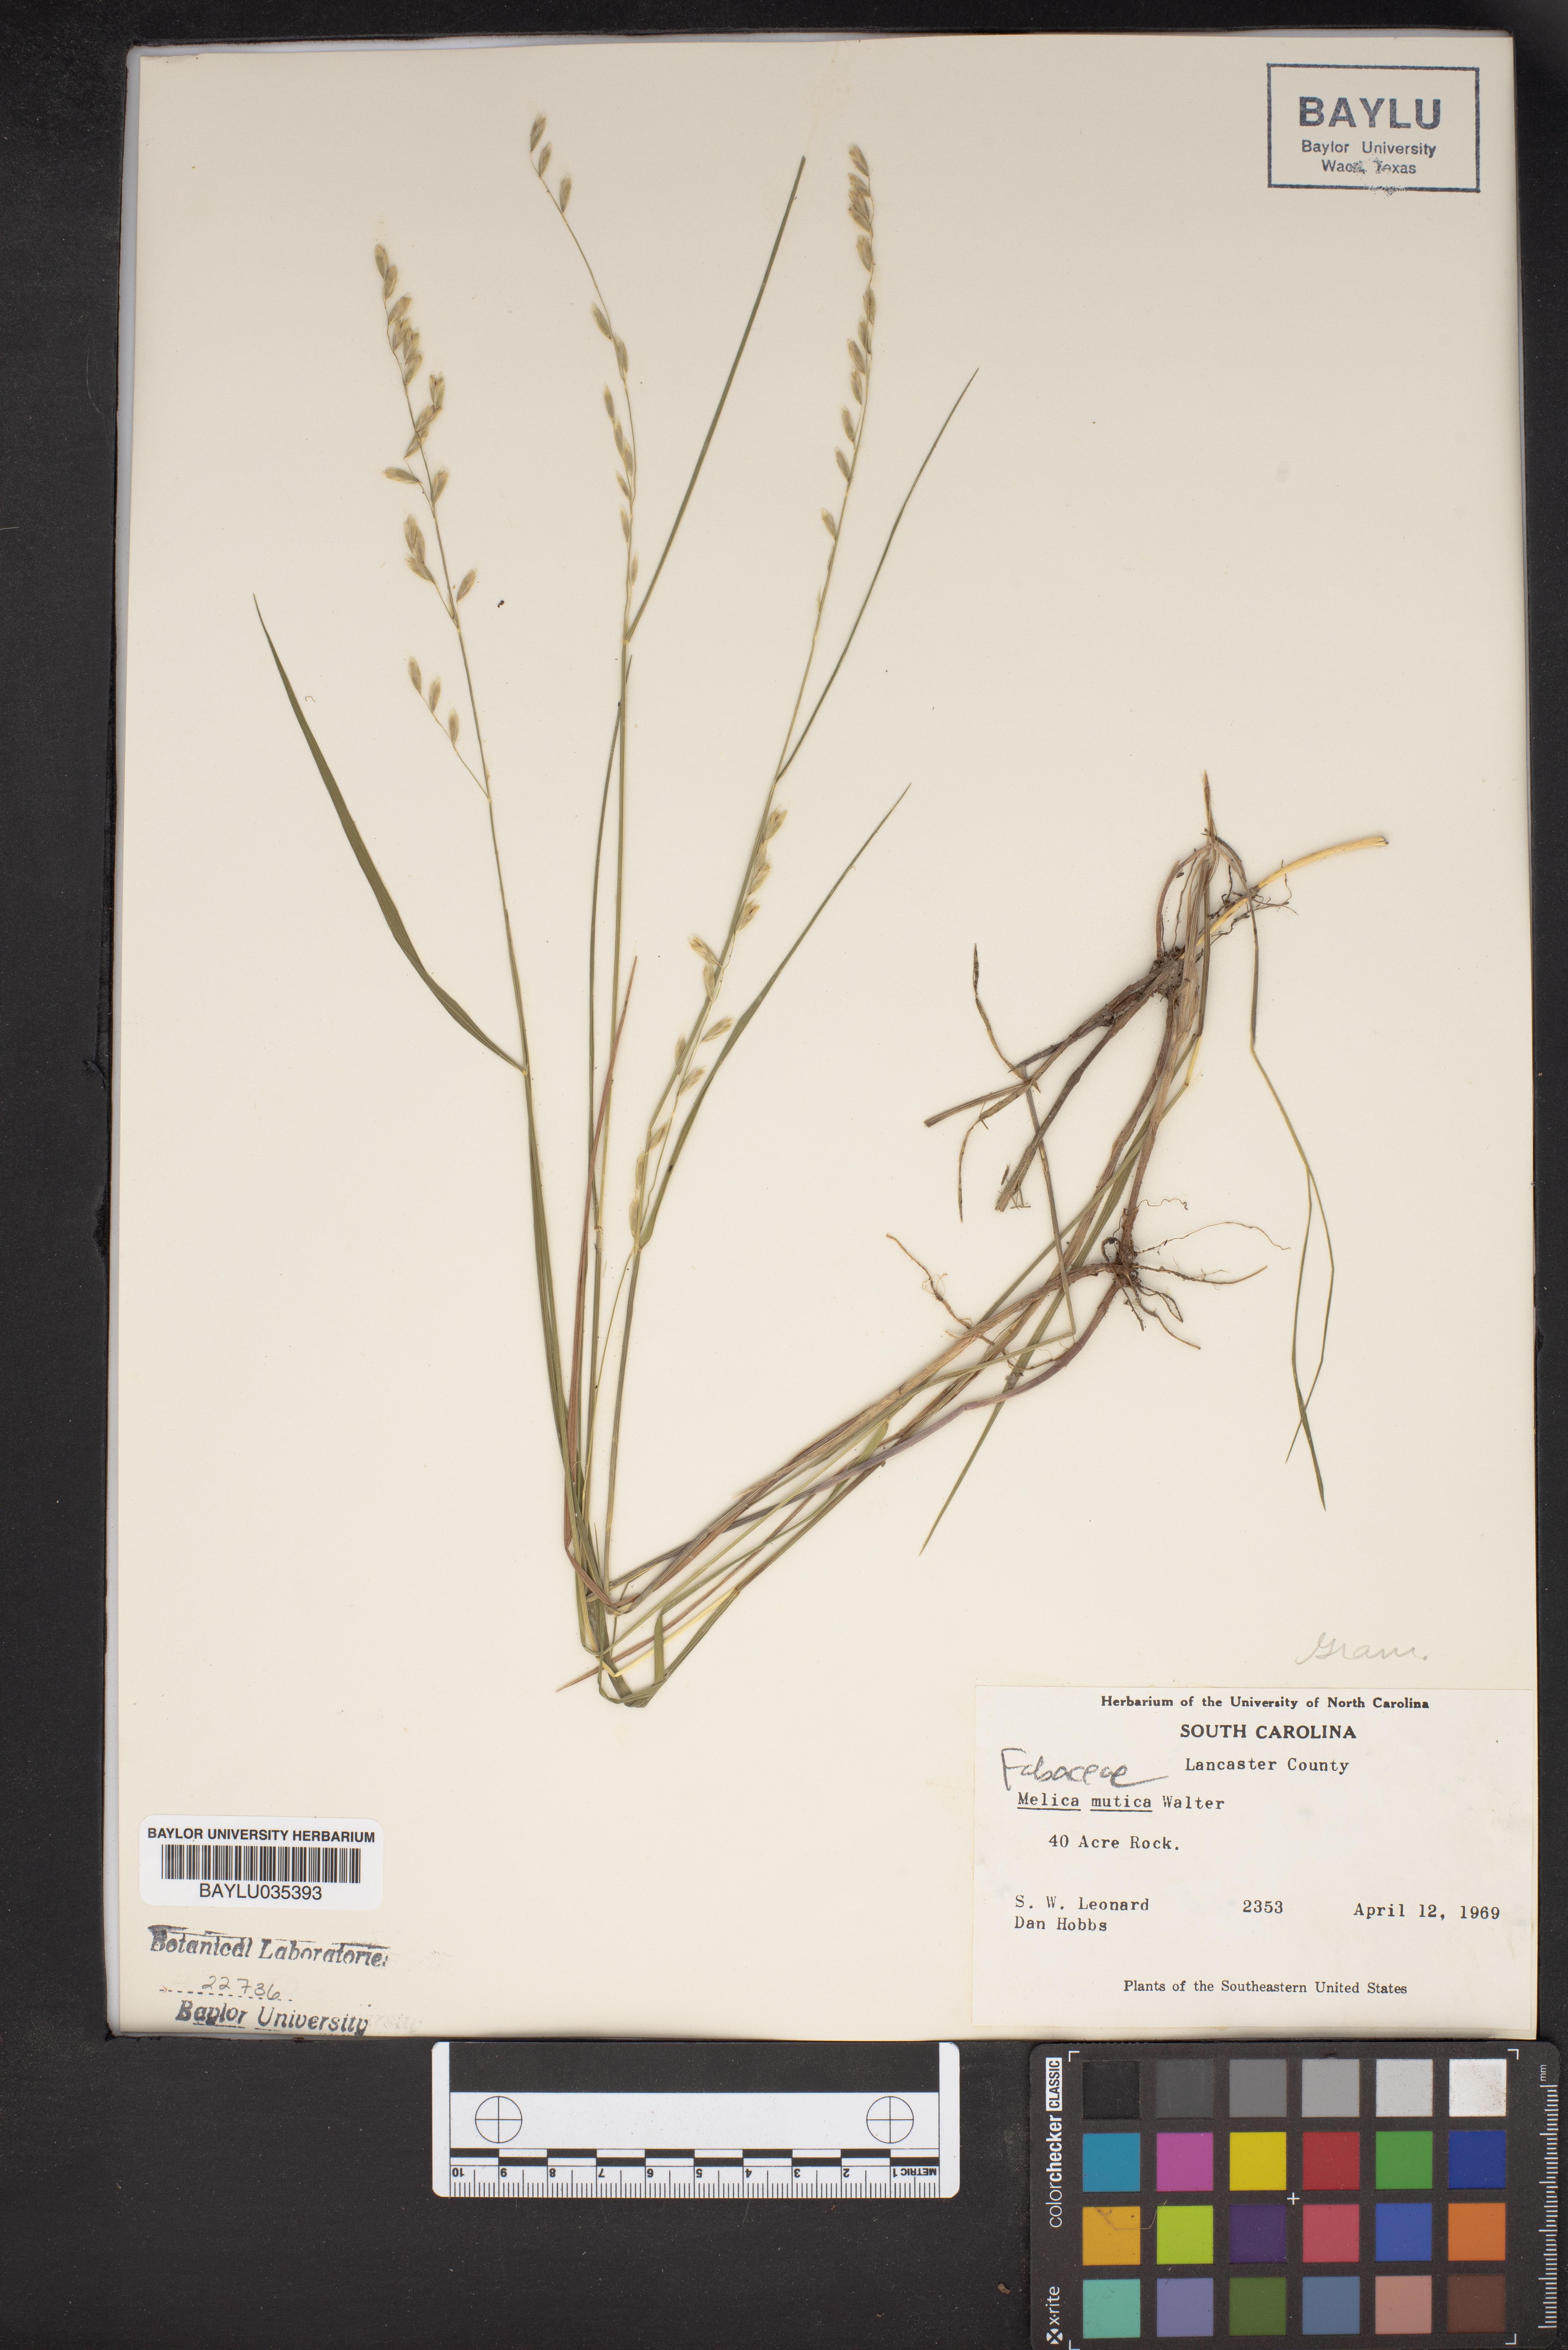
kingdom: Plantae
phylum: Tracheophyta
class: Liliopsida
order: Poales
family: Poaceae
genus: Melica
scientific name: Melica mutica
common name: Two-flower melic
